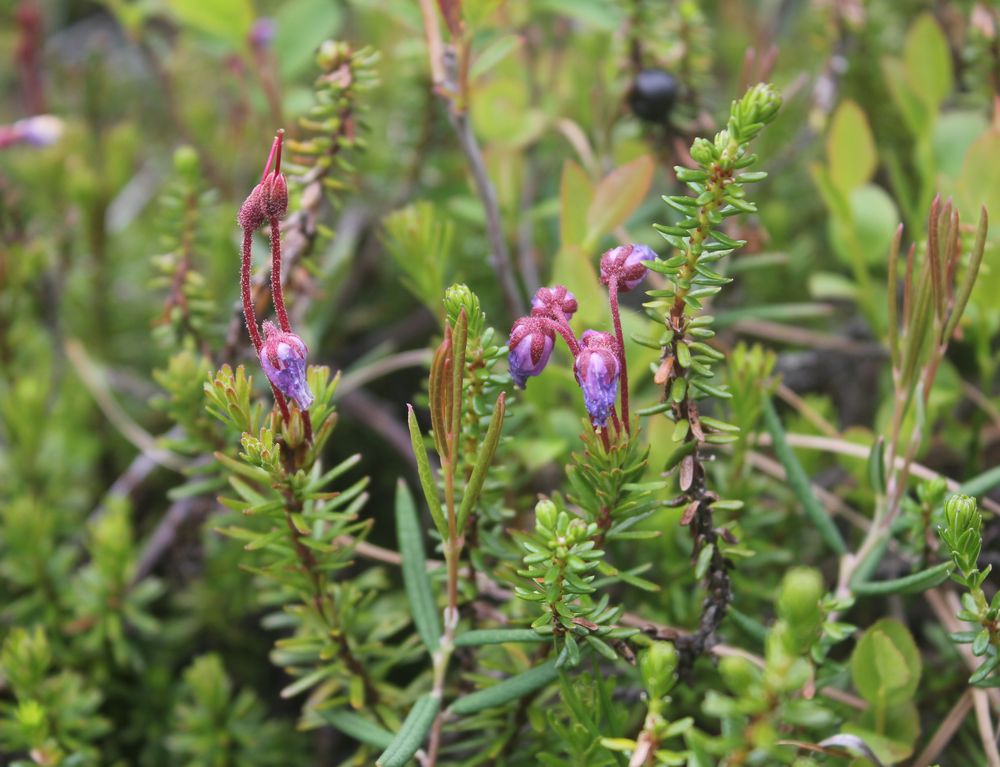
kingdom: Plantae
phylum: Tracheophyta
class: Magnoliopsida
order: Ericales
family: Ericaceae
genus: Phyllodoce
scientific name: Phyllodoce caerulea
